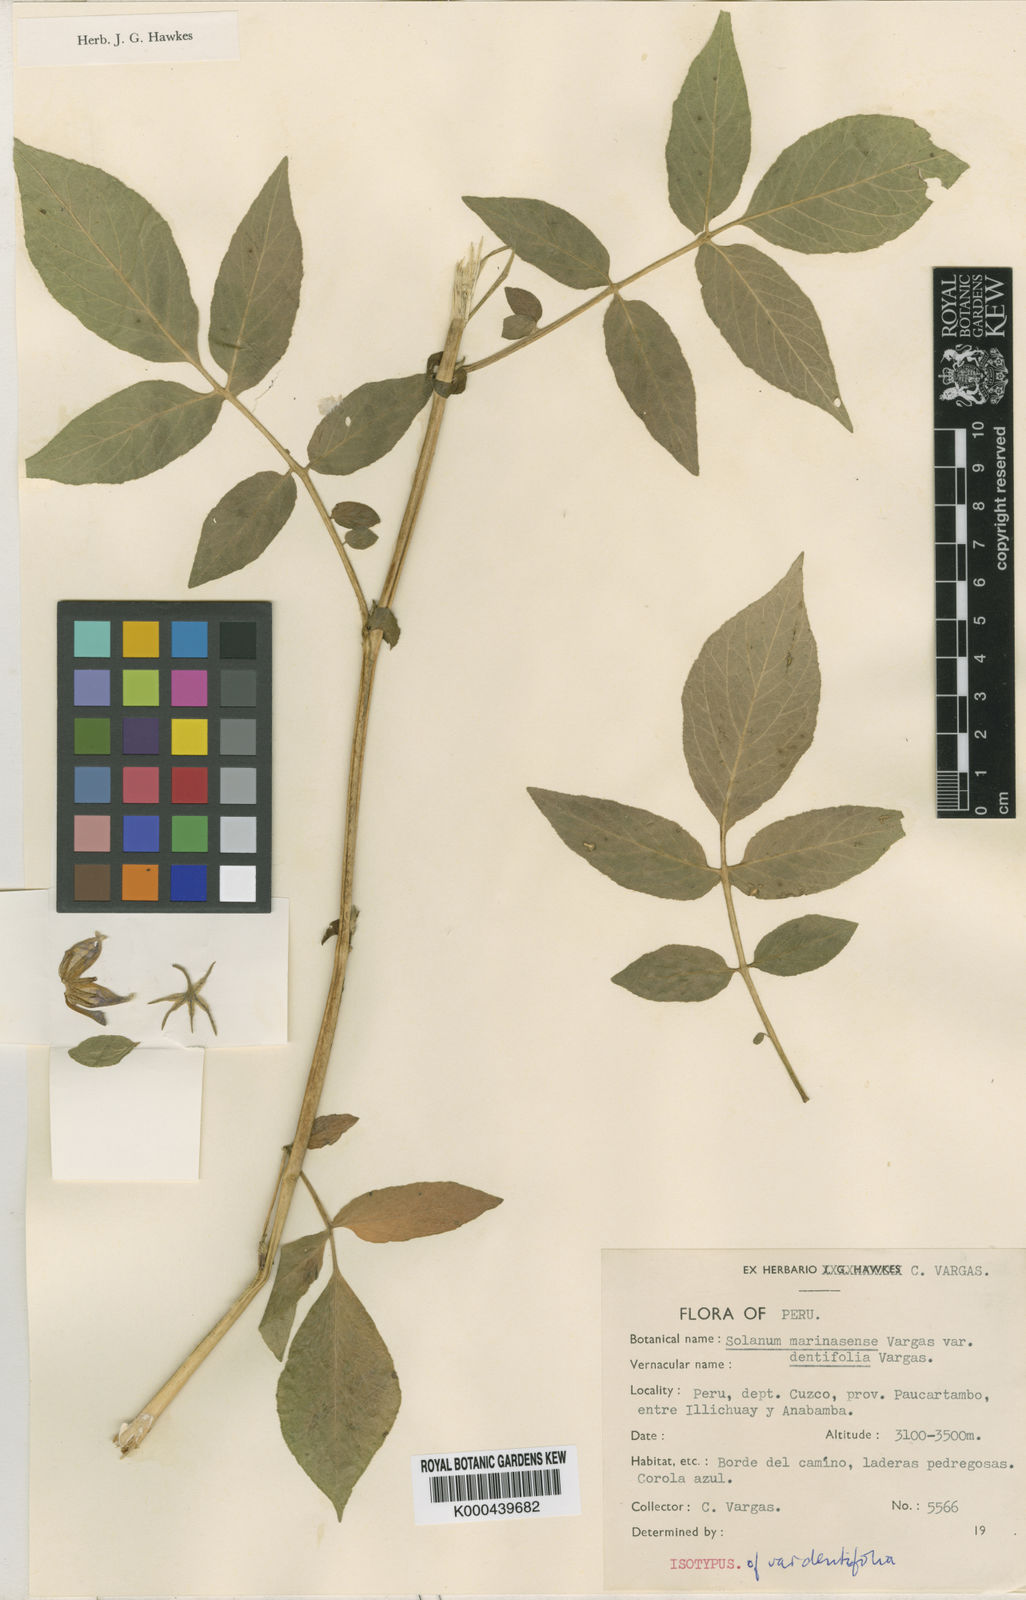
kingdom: Plantae
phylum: Tracheophyta
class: Magnoliopsida
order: Solanales
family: Solanaceae
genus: Solanum
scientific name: Solanum candolleanum
